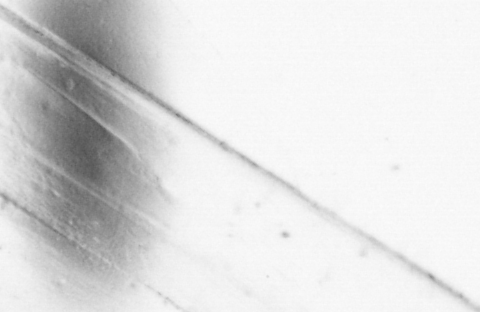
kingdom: Animalia
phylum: Chordata
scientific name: Chordata
